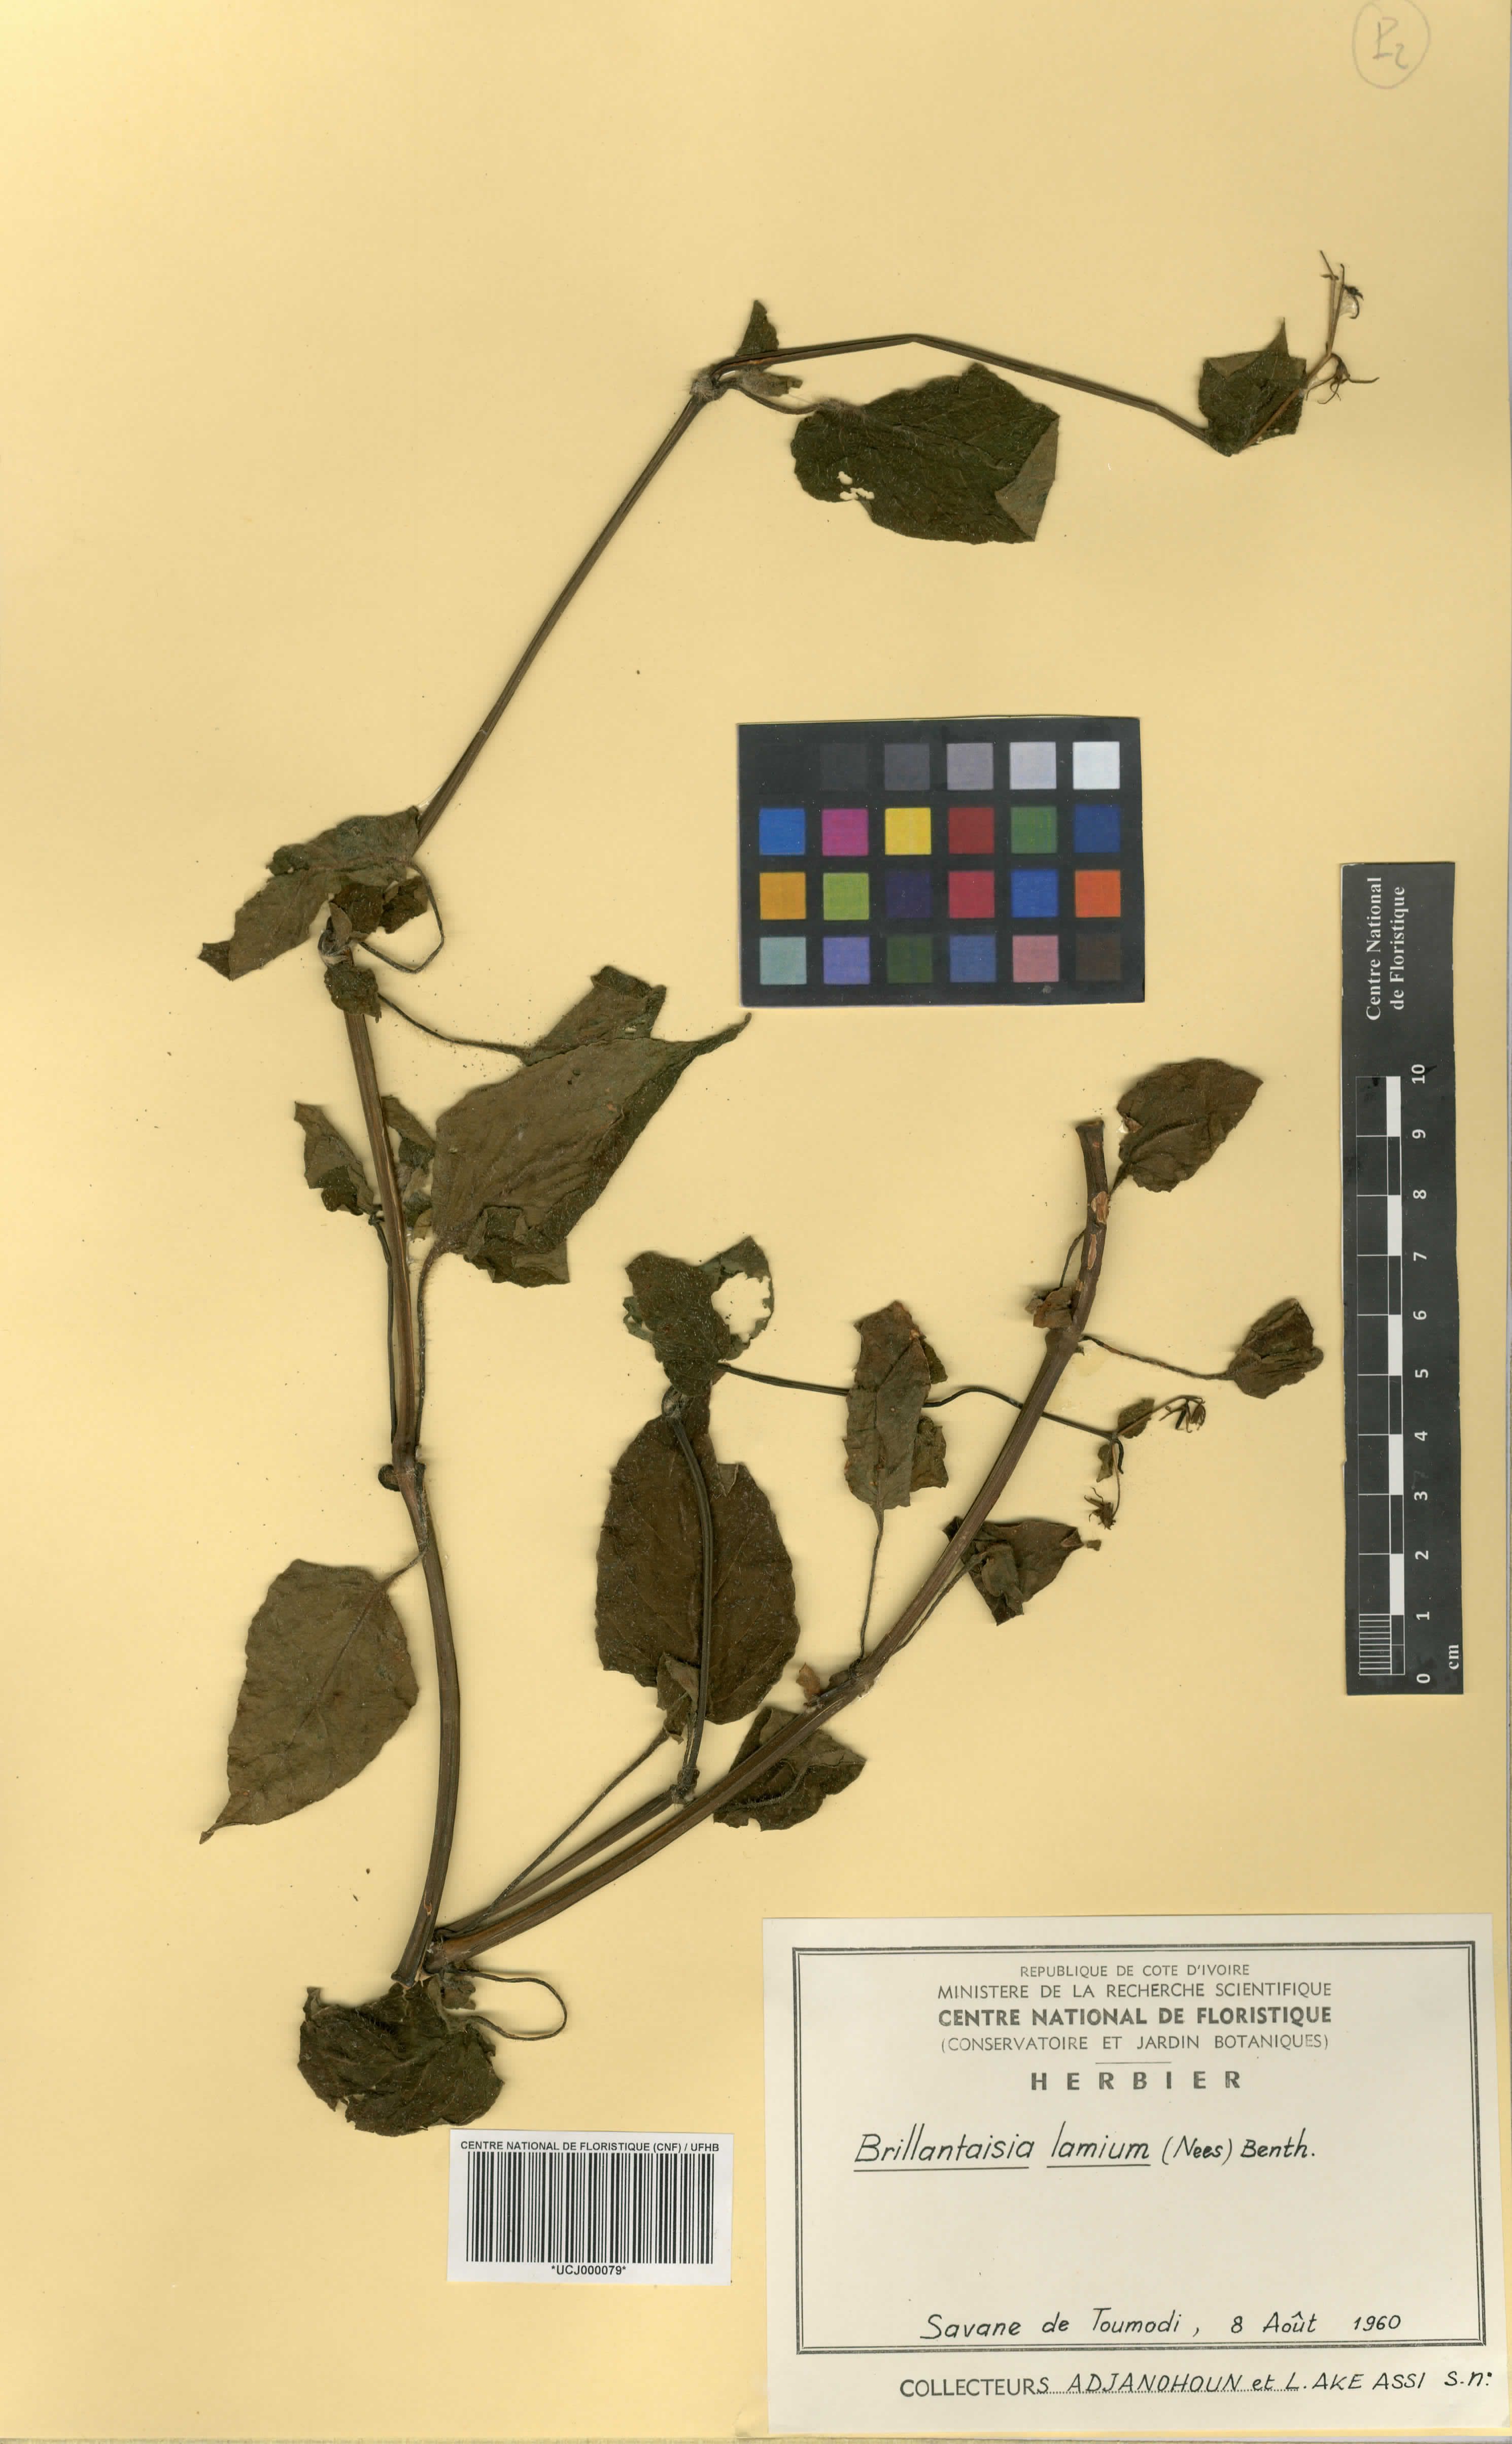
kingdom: Plantae
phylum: Tracheophyta
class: Magnoliopsida
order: Lamiales
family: Acanthaceae
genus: Brillantaisia
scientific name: Brillantaisia lamium
